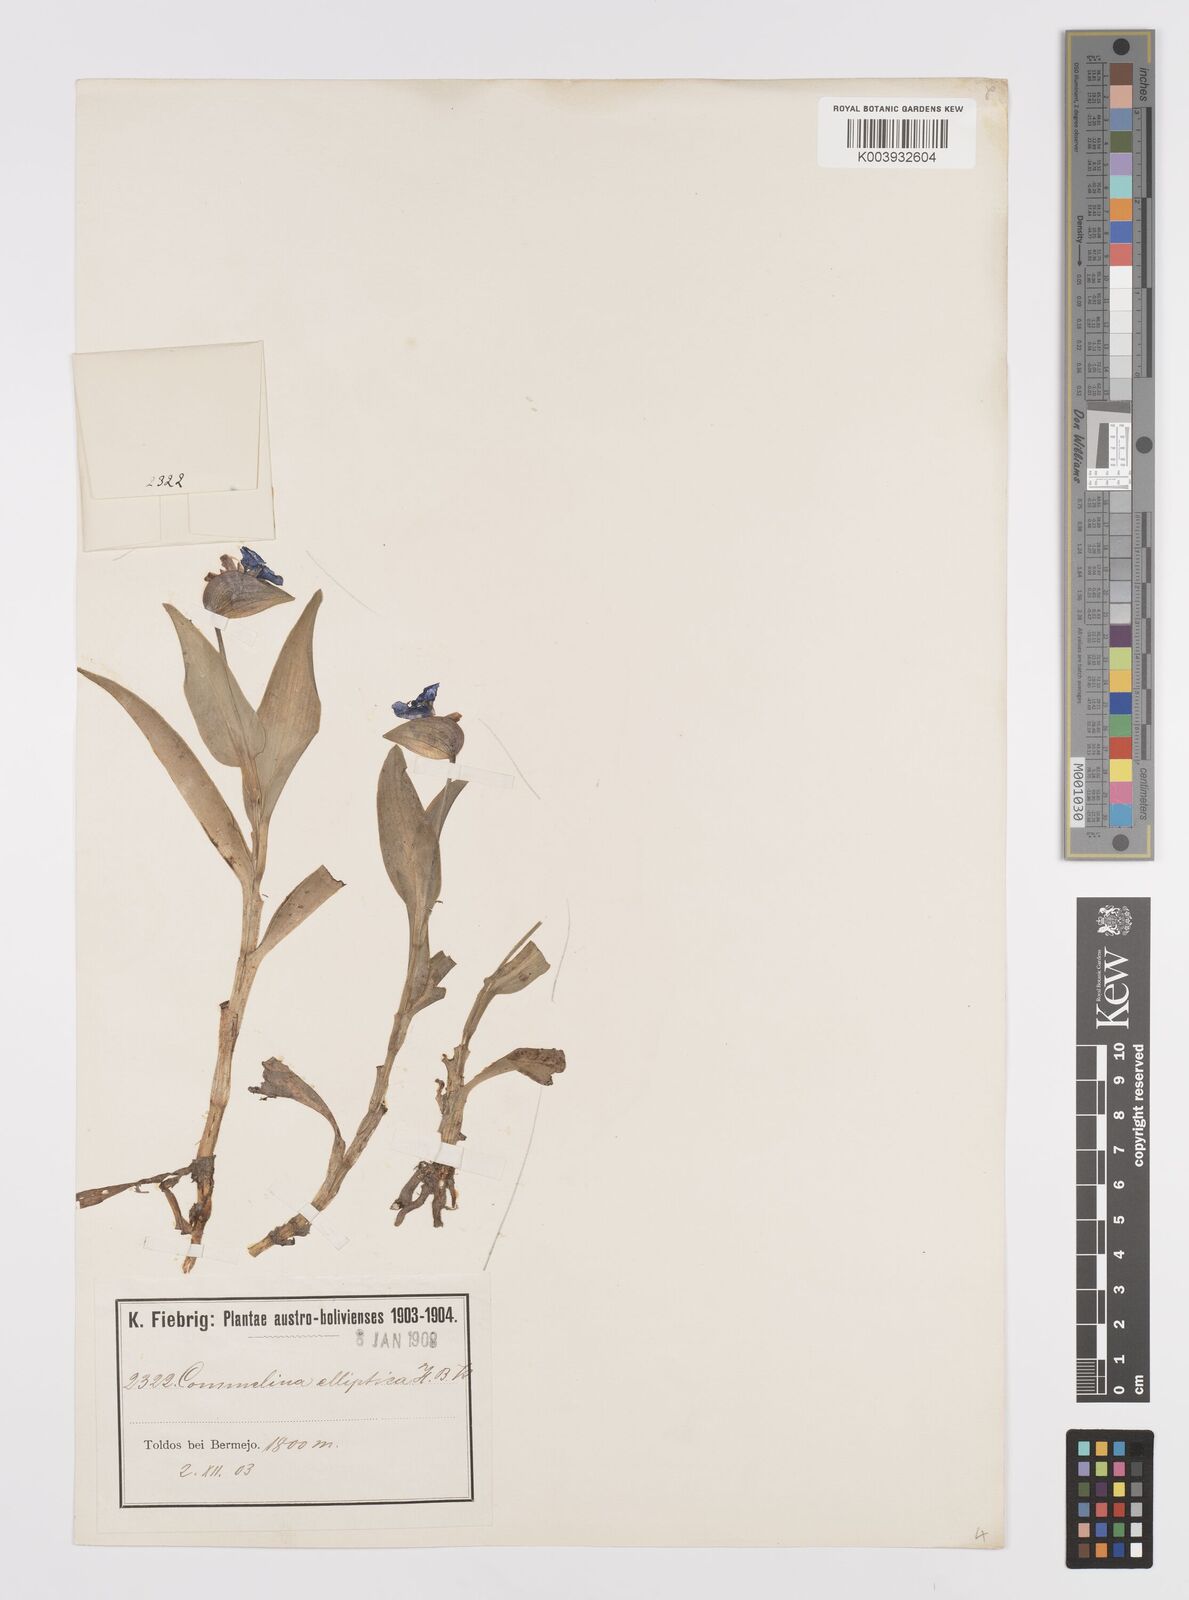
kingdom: Plantae
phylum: Tracheophyta
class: Liliopsida
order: Commelinales
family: Commelinaceae
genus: Commelina
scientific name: Commelina elliptica
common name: Peruvian spiderwort
